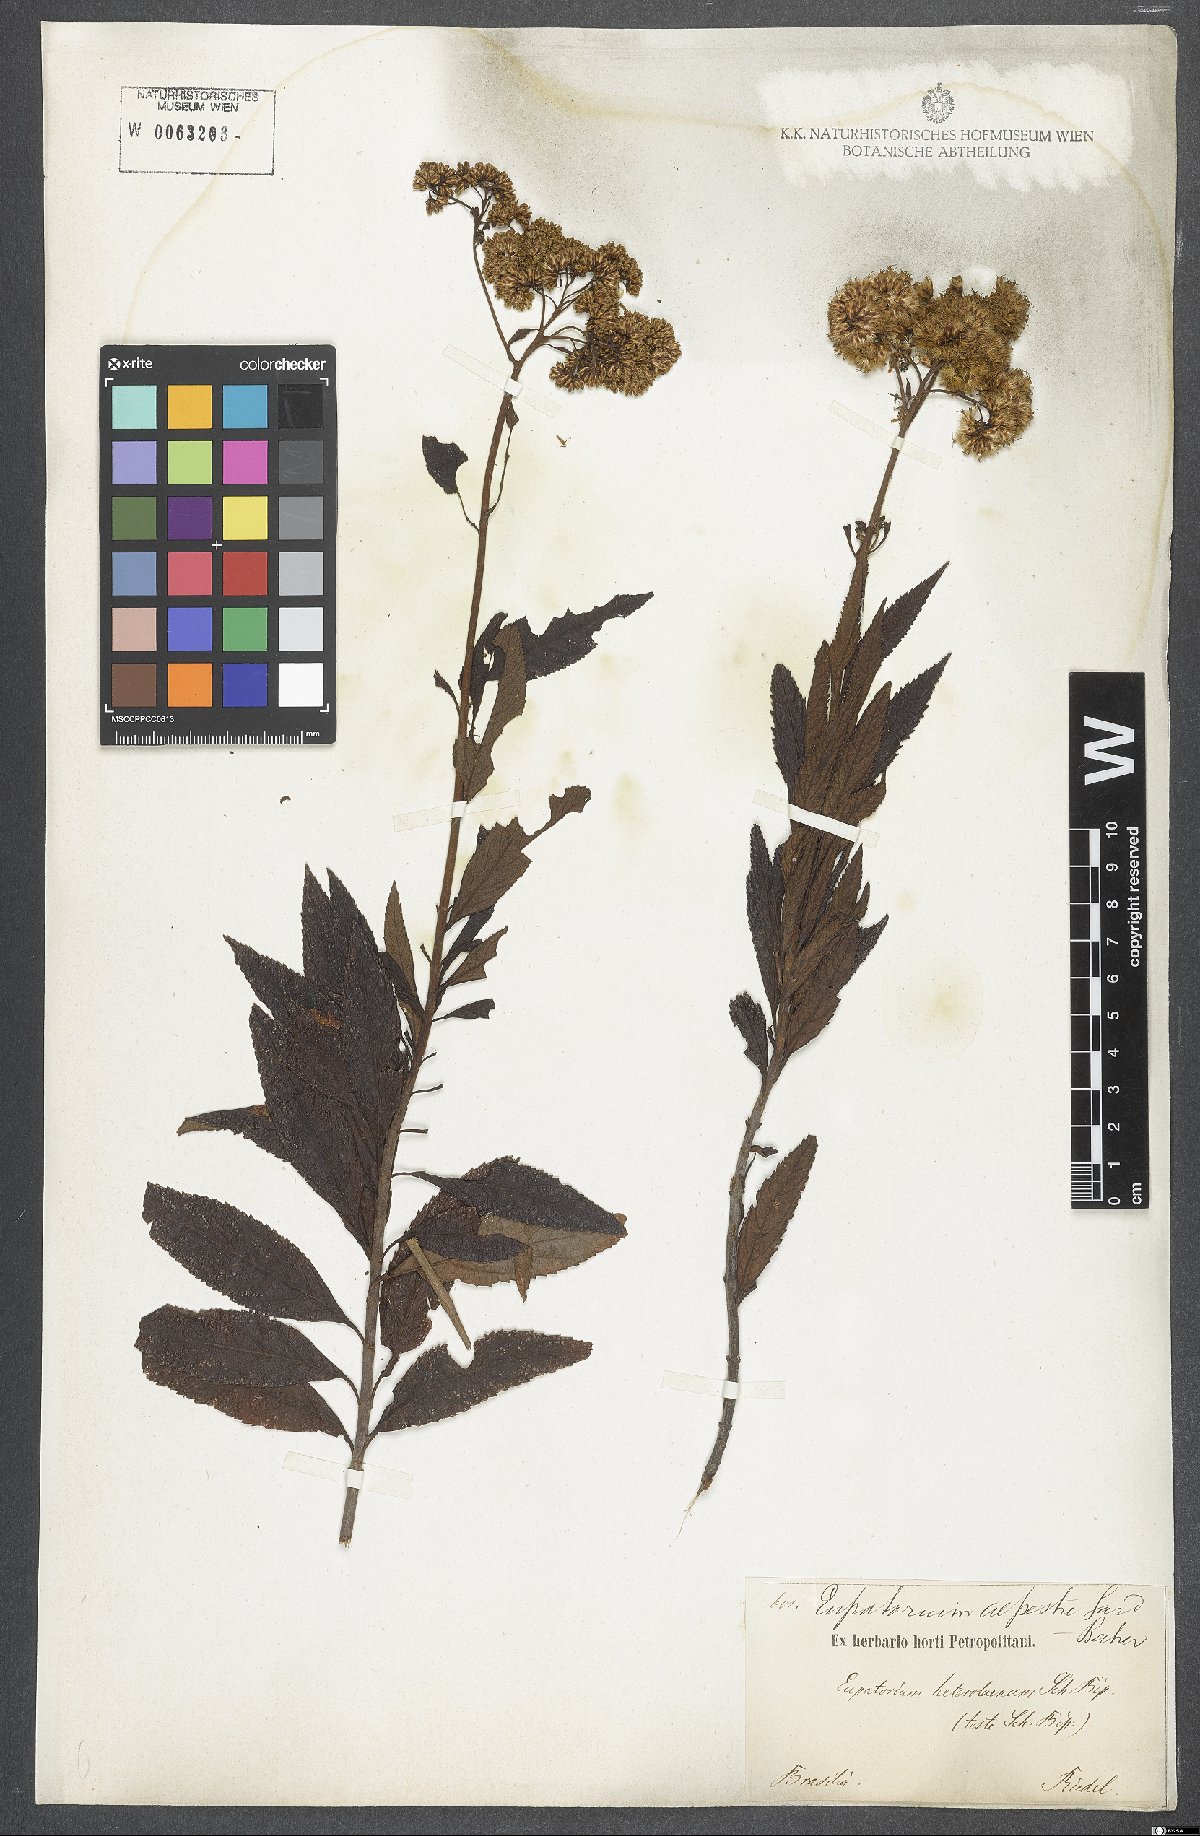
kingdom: Plantae
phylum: Tracheophyta
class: Magnoliopsida
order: Asterales
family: Asteraceae
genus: Grazielia
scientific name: Grazielia serrata
